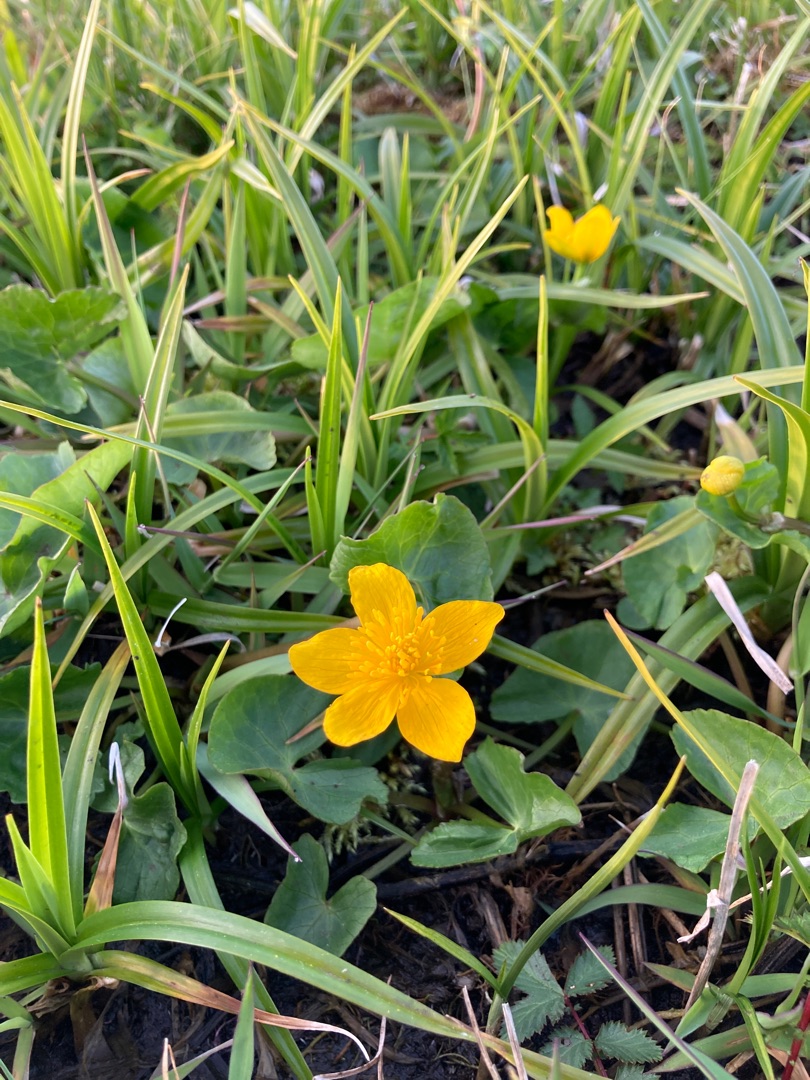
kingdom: Plantae
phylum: Tracheophyta
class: Magnoliopsida
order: Ranunculales
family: Ranunculaceae
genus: Caltha
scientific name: Caltha palustris
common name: Eng-kabbeleje
